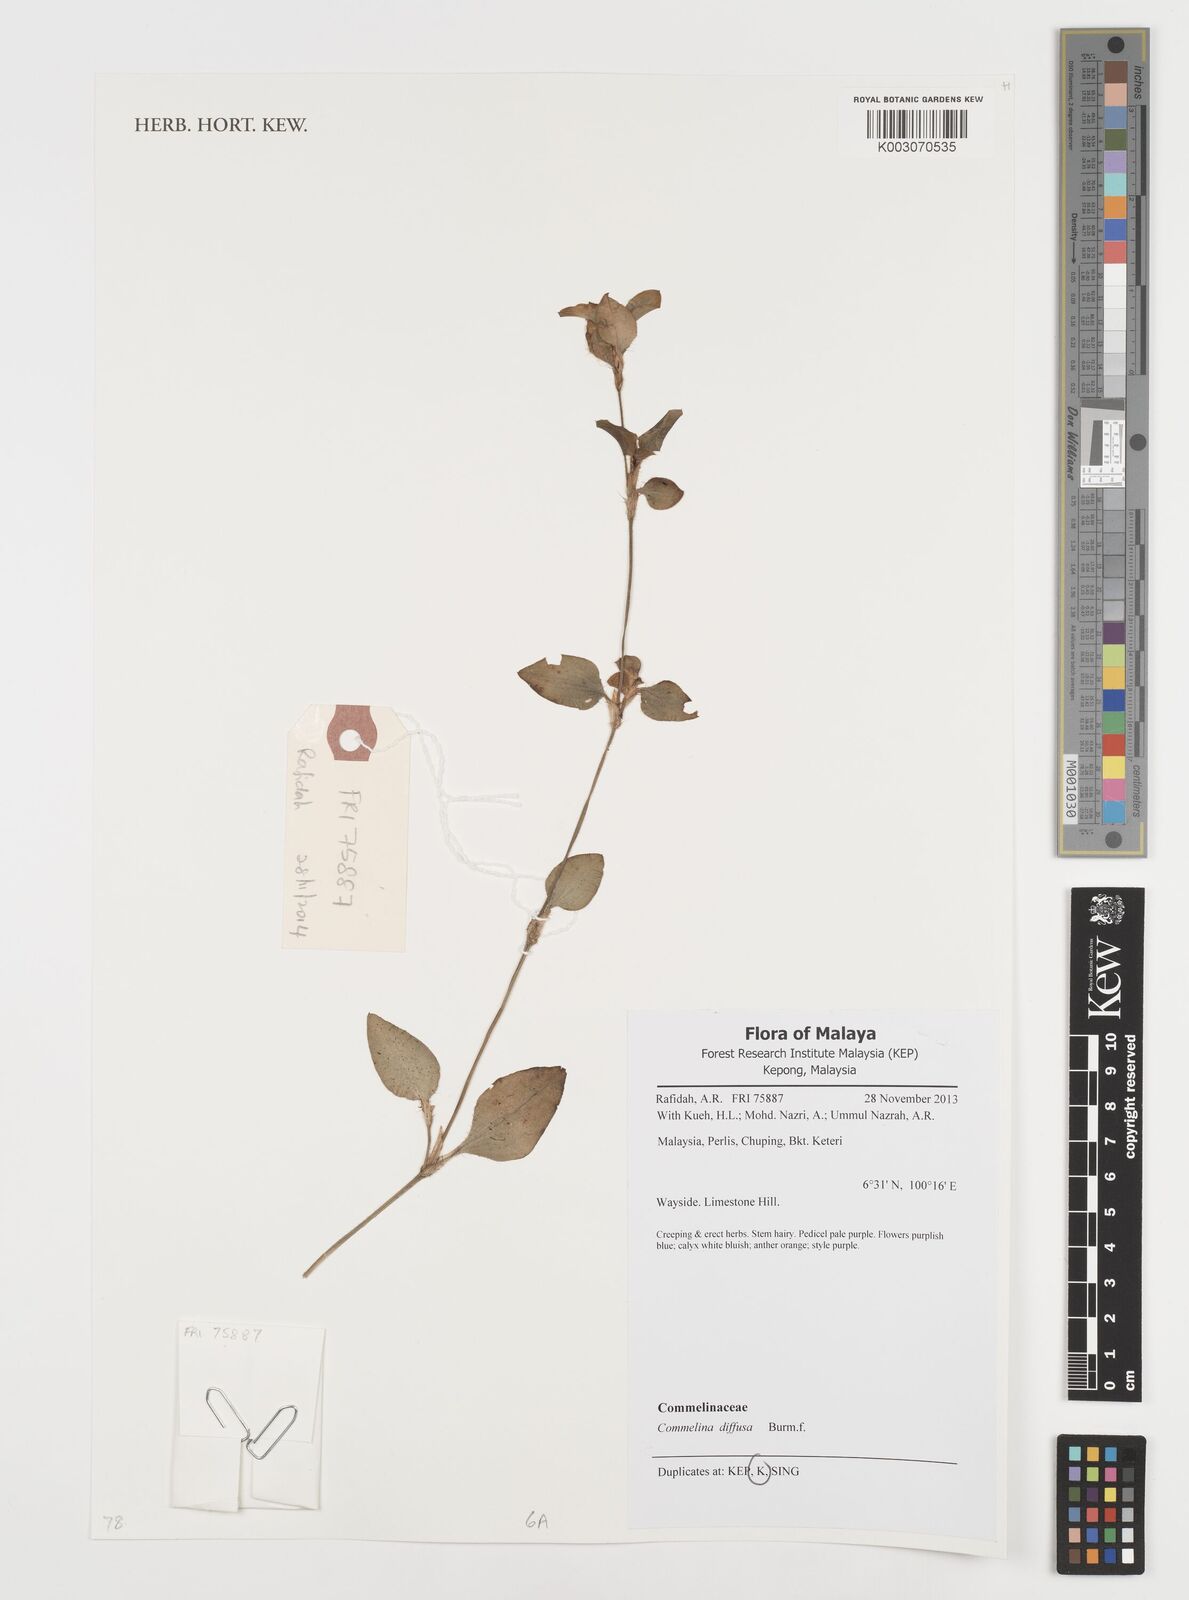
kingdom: Plantae
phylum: Tracheophyta
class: Liliopsida
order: Commelinales
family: Commelinaceae
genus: Commelina
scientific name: Commelina clavata
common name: Willow leaved dayflower
